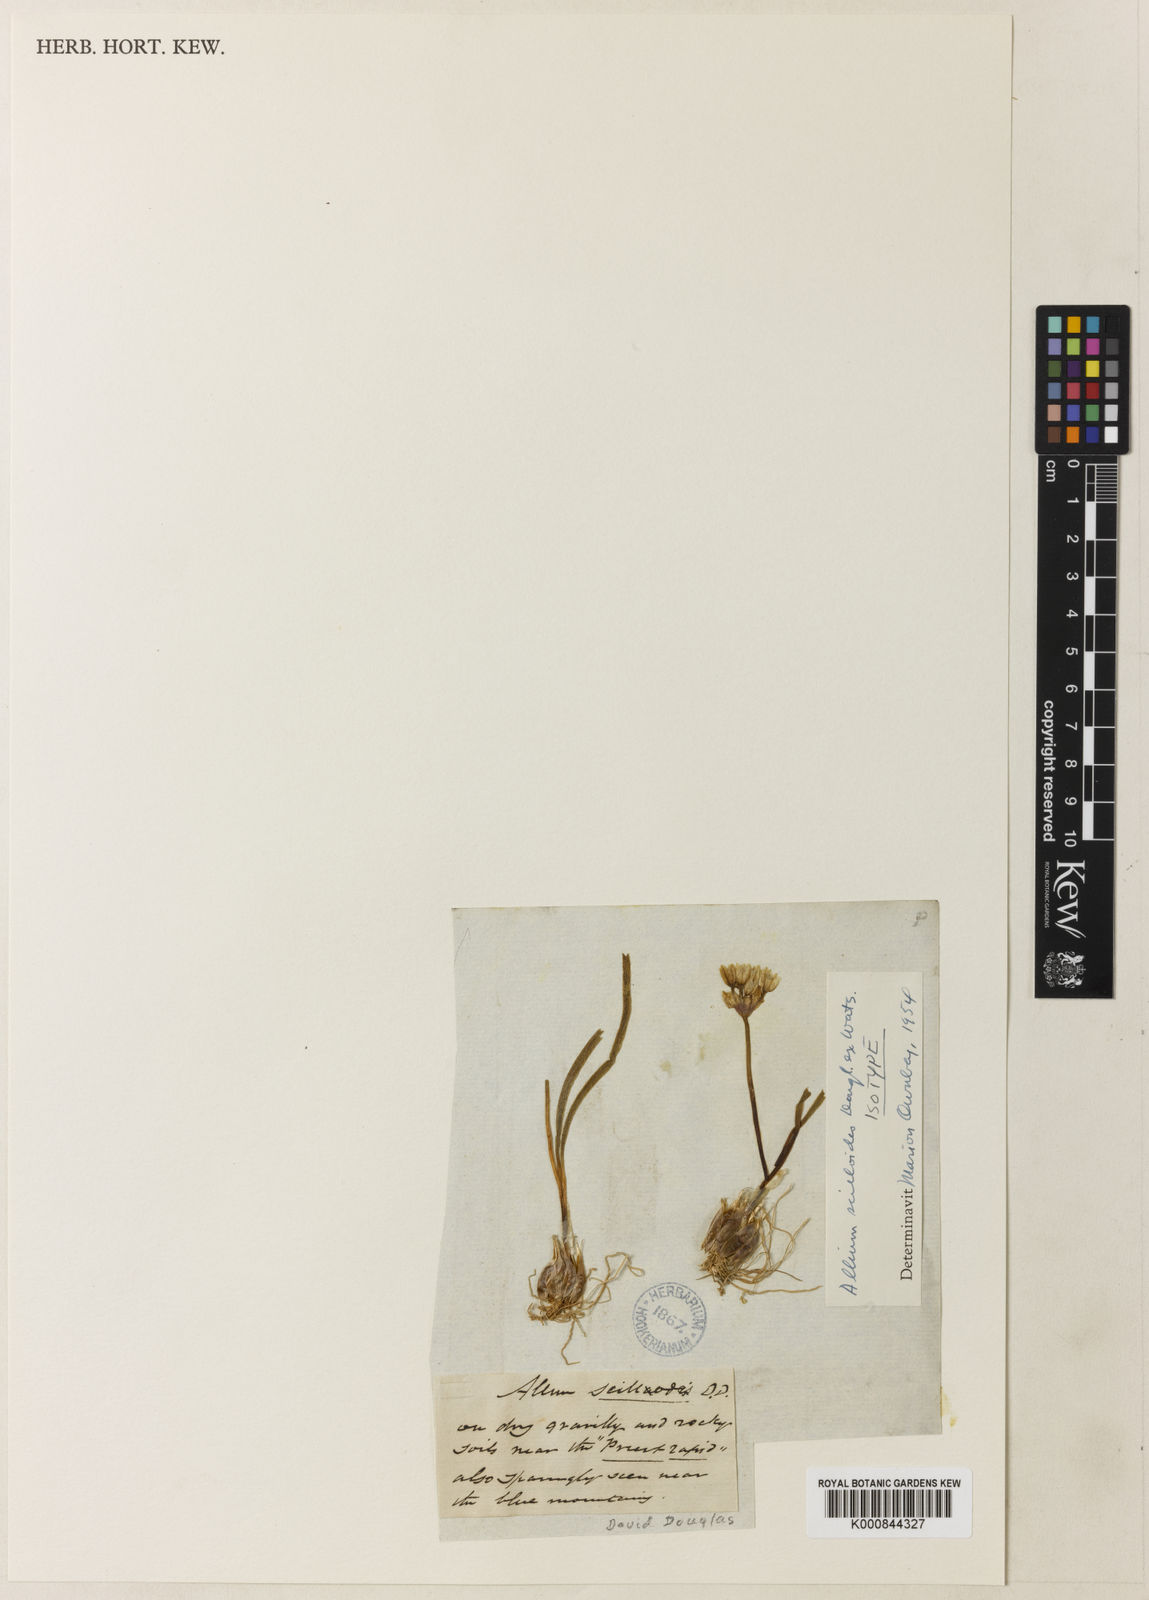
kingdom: Plantae
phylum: Tracheophyta
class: Liliopsida
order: Asparagales
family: Amaryllidaceae
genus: Allium
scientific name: Allium scilloides
